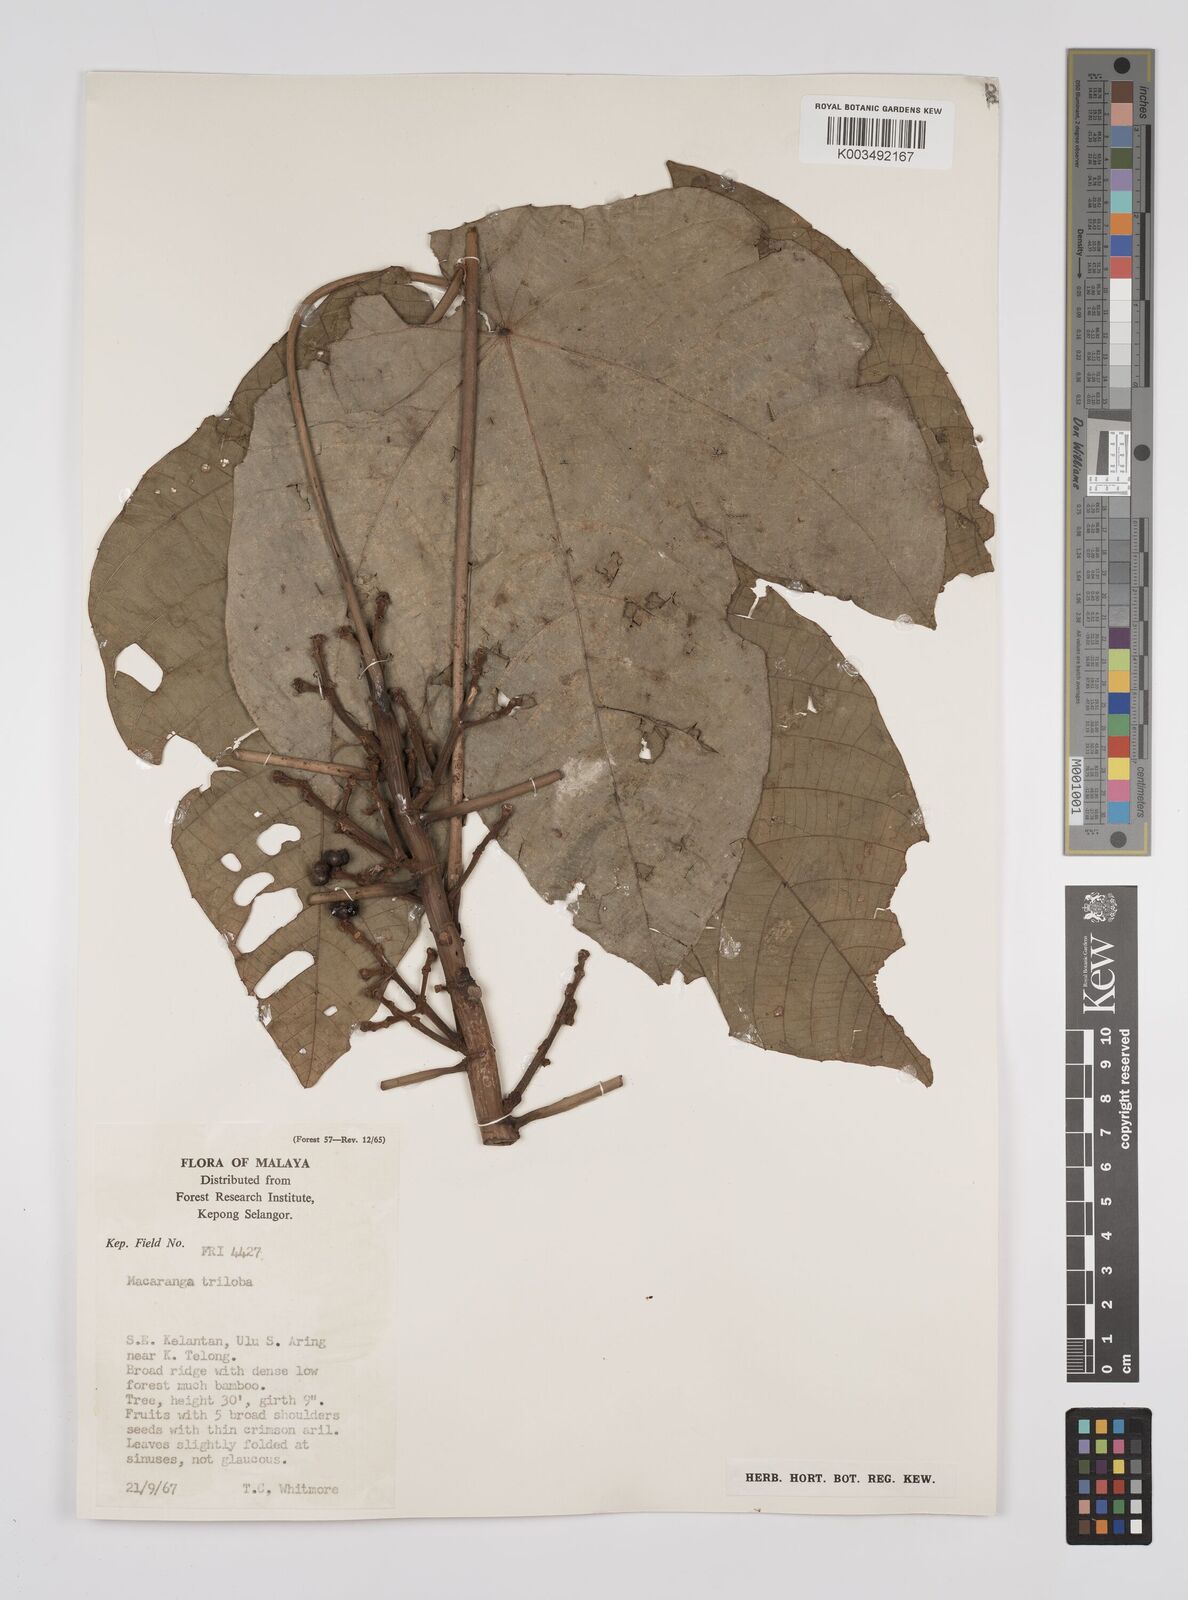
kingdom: Plantae
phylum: Tracheophyta
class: Magnoliopsida
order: Malpighiales
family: Euphorbiaceae
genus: Macaranga
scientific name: Macaranga triloba
